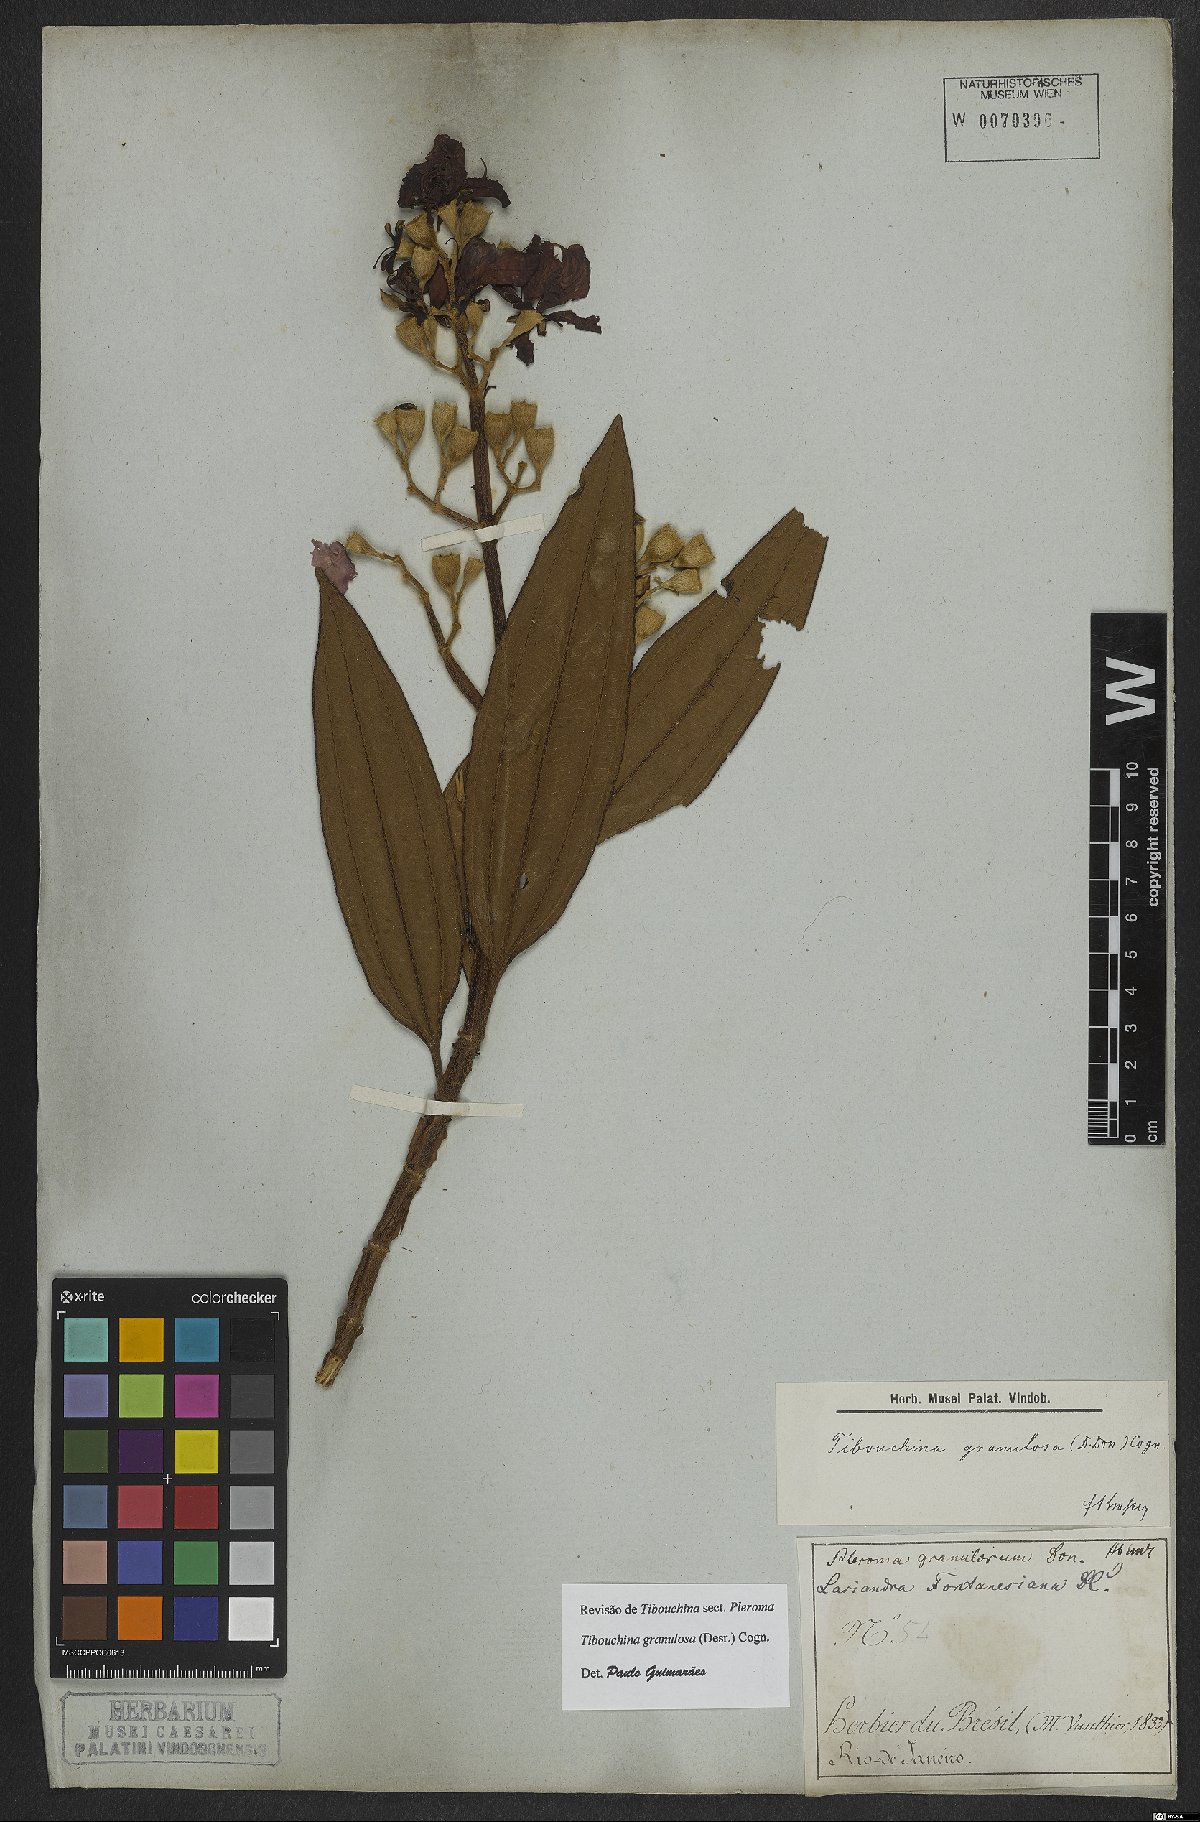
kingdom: Plantae
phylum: Tracheophyta
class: Magnoliopsida
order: Myrtales
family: Melastomataceae
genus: Pleroma
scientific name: Pleroma granulosum
